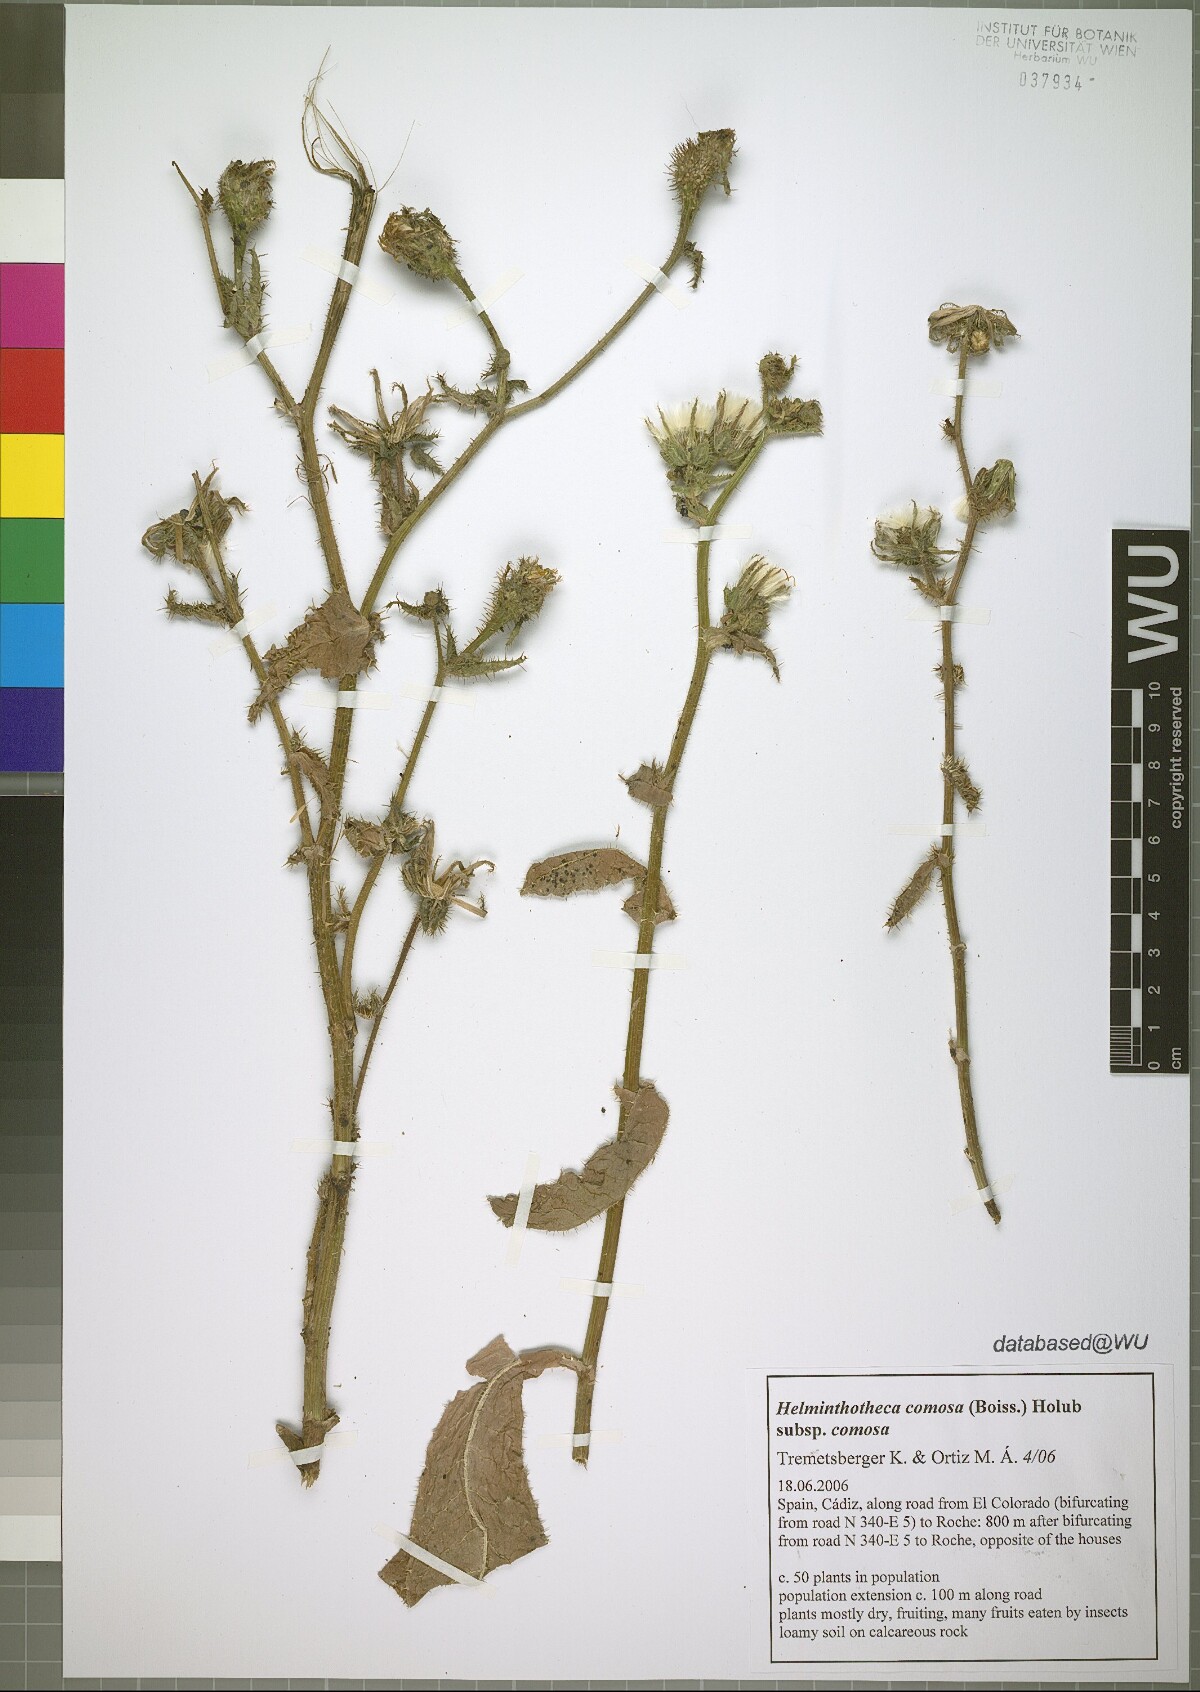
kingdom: Plantae
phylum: Tracheophyta
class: Magnoliopsida
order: Asterales
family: Asteraceae
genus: Helminthotheca
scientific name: Helminthotheca comosa
